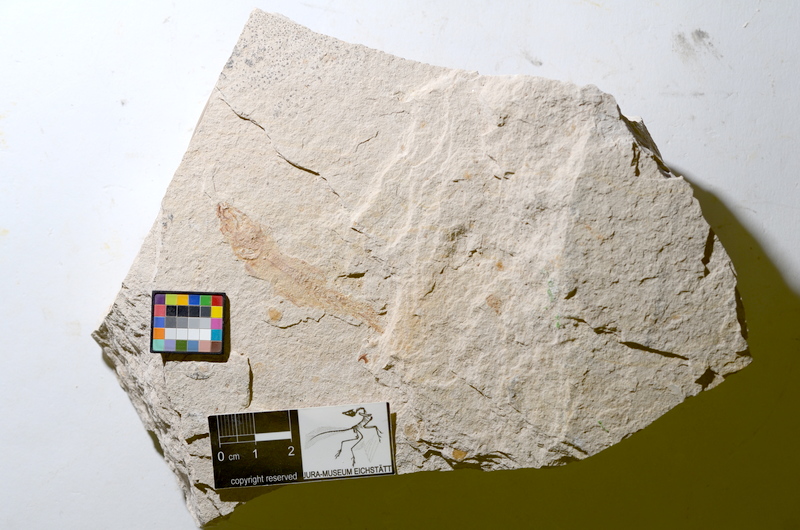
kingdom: Animalia
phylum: Chordata
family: Ascalaboidae
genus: Tharsis
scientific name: Tharsis dubius
